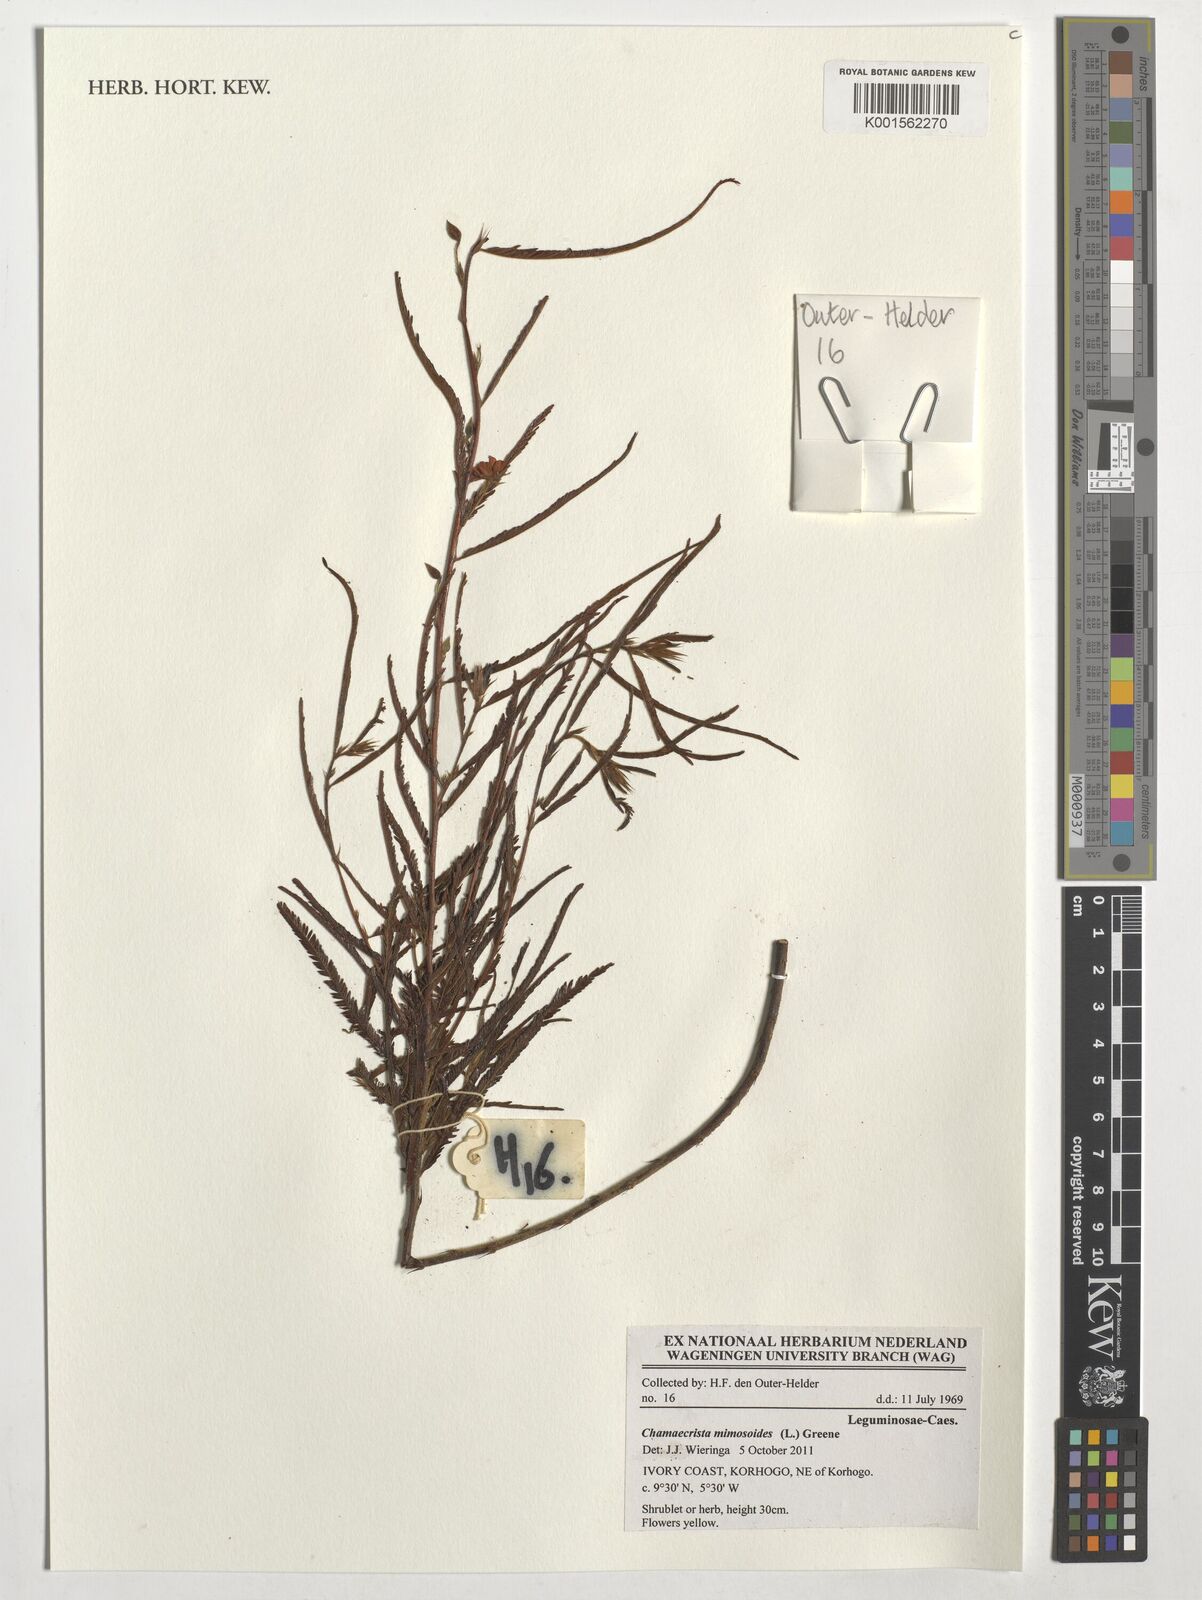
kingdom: Plantae
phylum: Tracheophyta
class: Magnoliopsida
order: Fabales
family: Fabaceae
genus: Chamaecrista
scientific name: Chamaecrista mimosoides
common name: Fish-bone cassia
